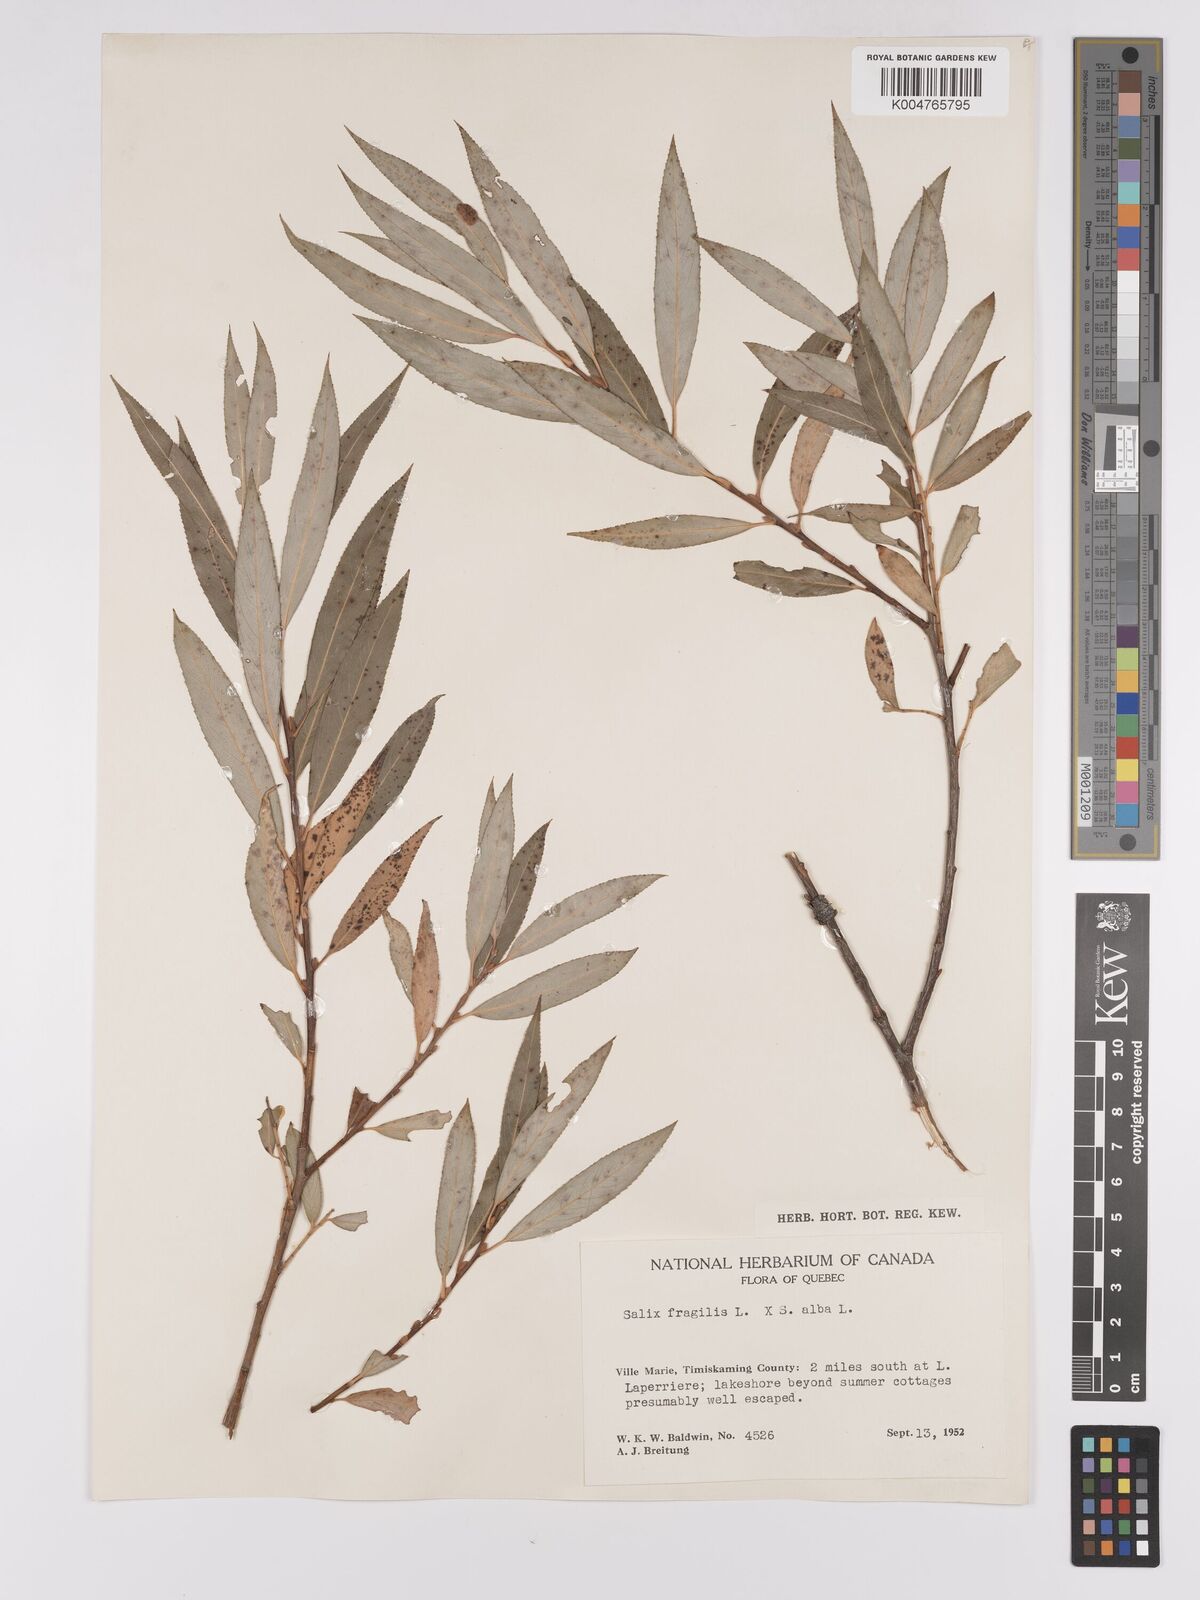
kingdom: Plantae
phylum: Tracheophyta
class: Magnoliopsida
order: Malpighiales
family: Salicaceae
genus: Salix
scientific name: Salix
